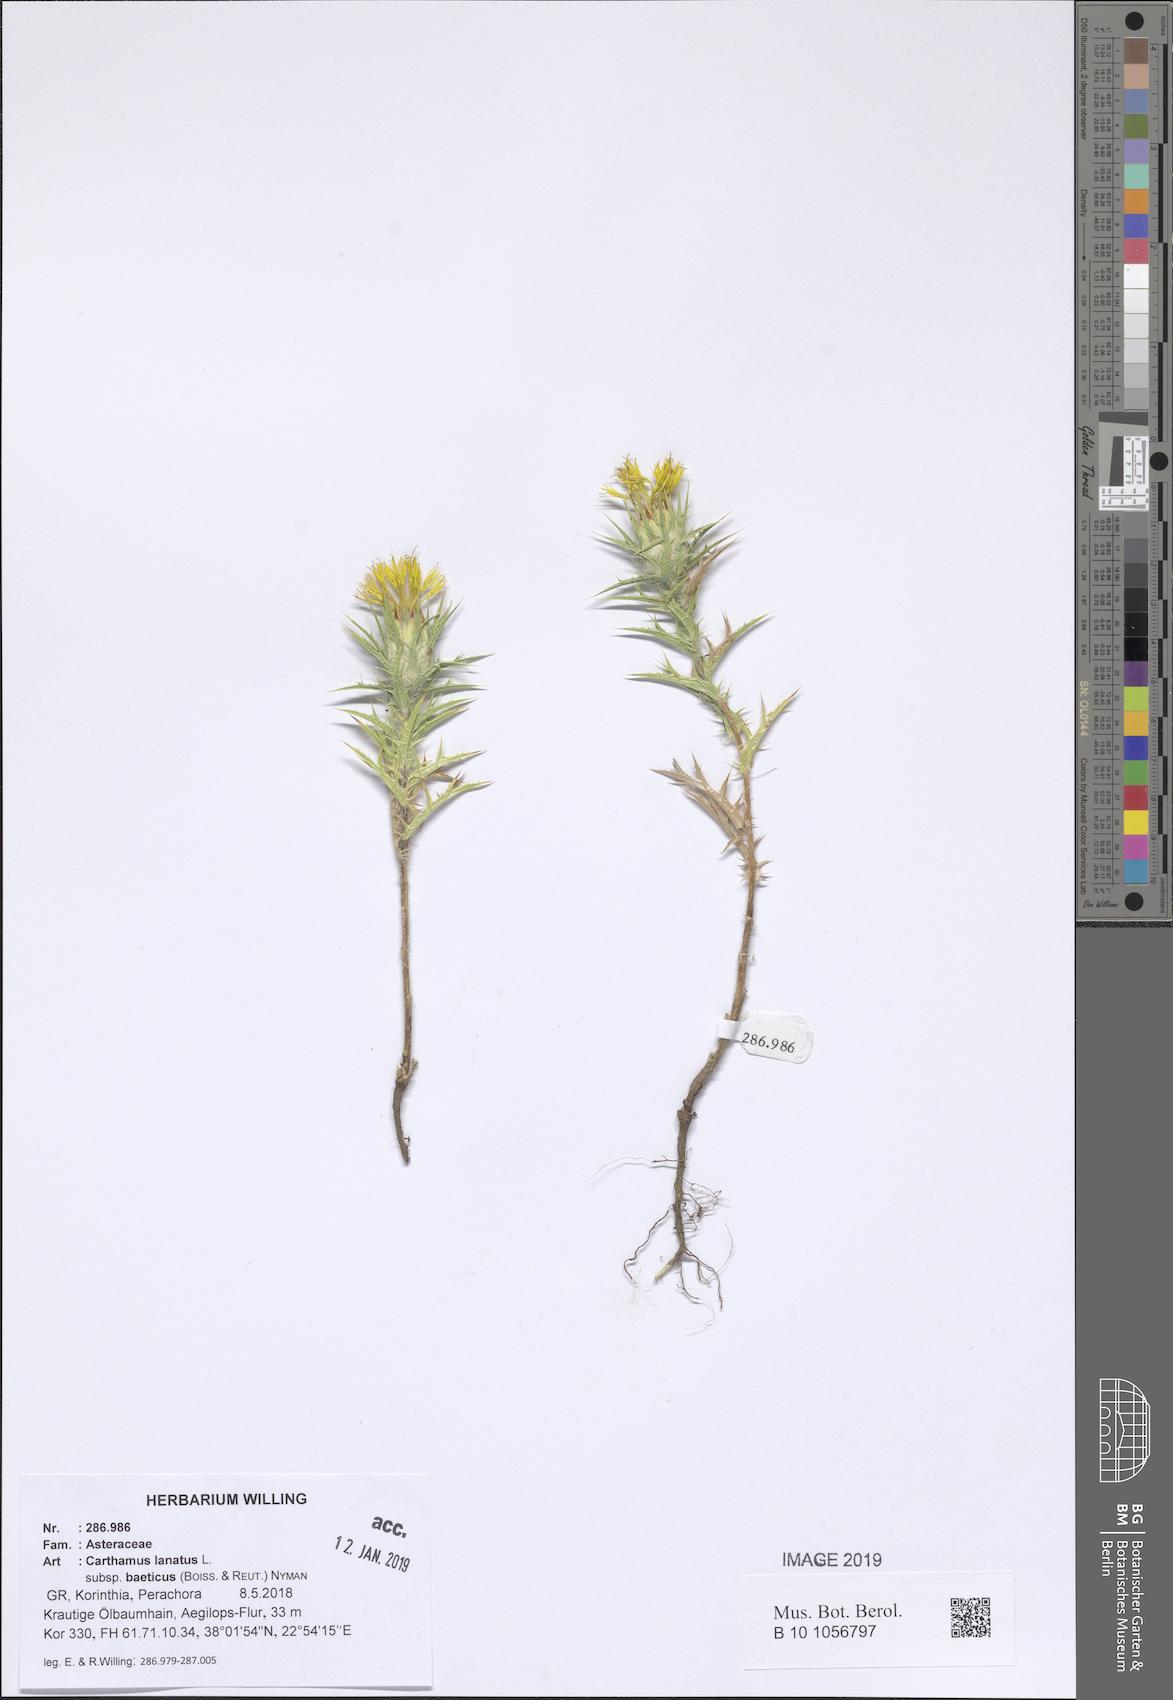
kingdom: Plantae
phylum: Tracheophyta
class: Magnoliopsida
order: Asterales
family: Asteraceae
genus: Carthamus
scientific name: Carthamus creticus
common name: Smooth distaff thistle
